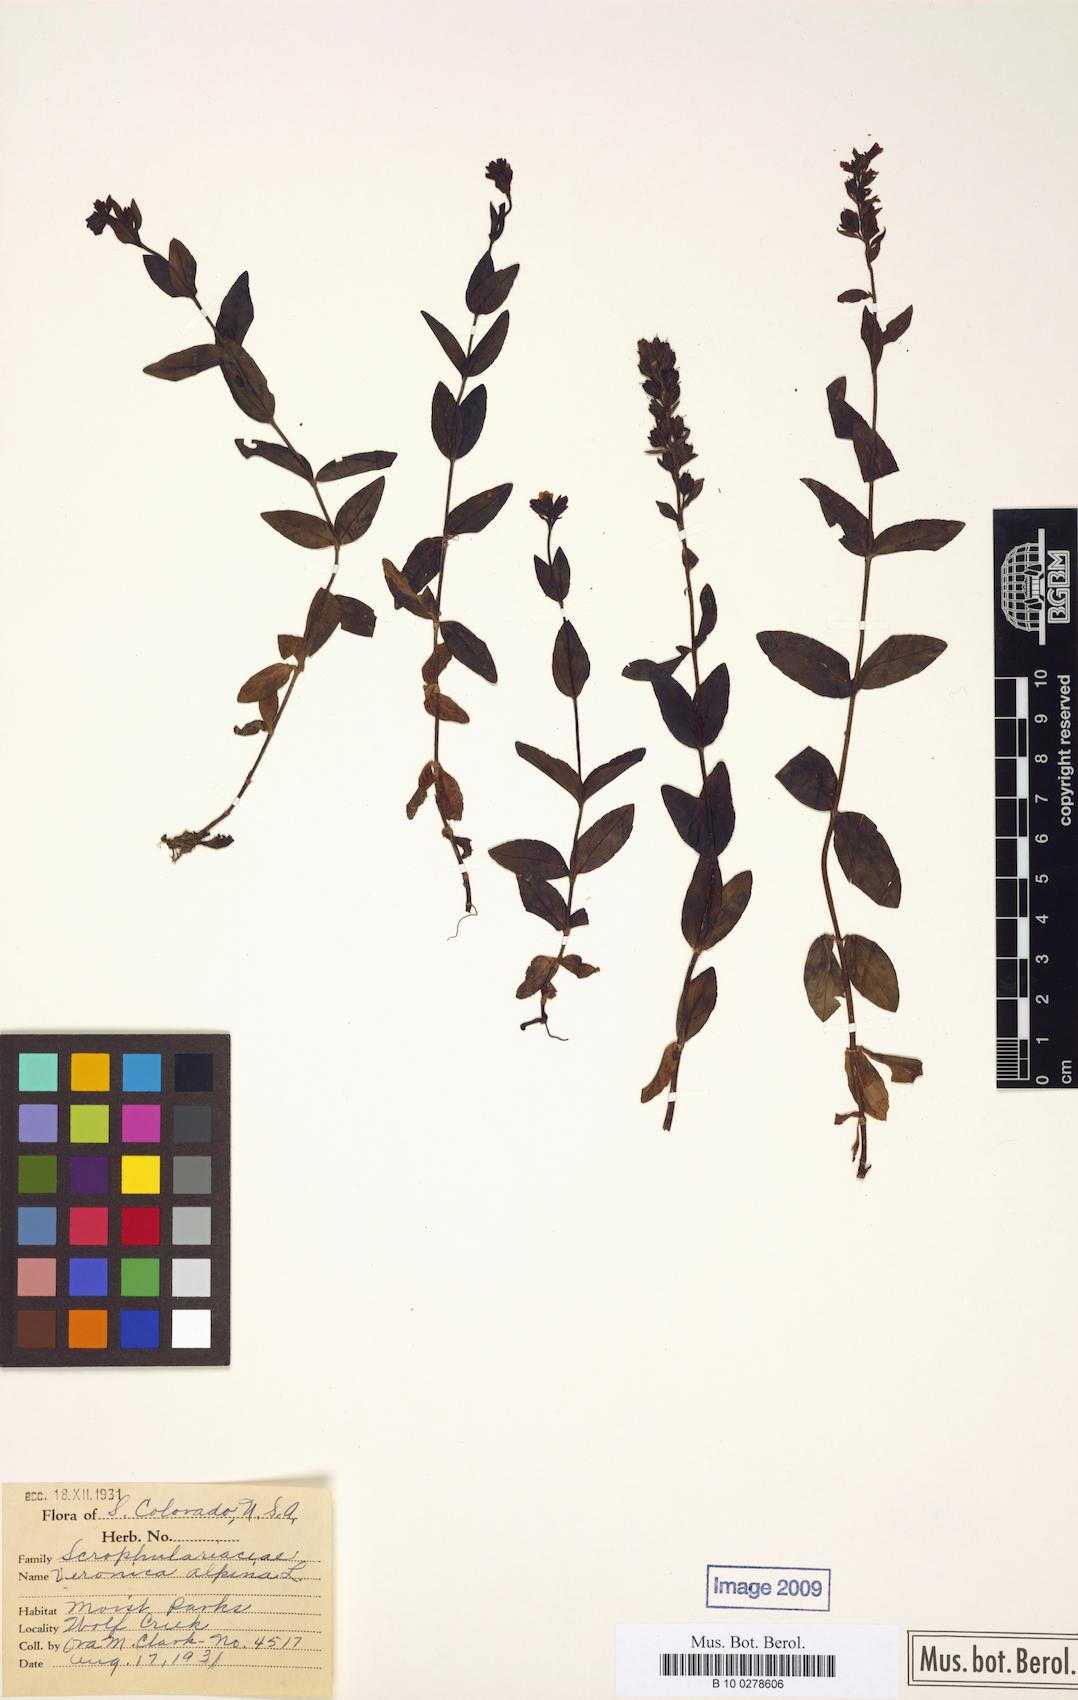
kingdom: Plantae
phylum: Tracheophyta
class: Magnoliopsida
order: Lamiales
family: Plantaginaceae
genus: Veronica
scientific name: Veronica wormskjoldii
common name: American alpine speedwell
